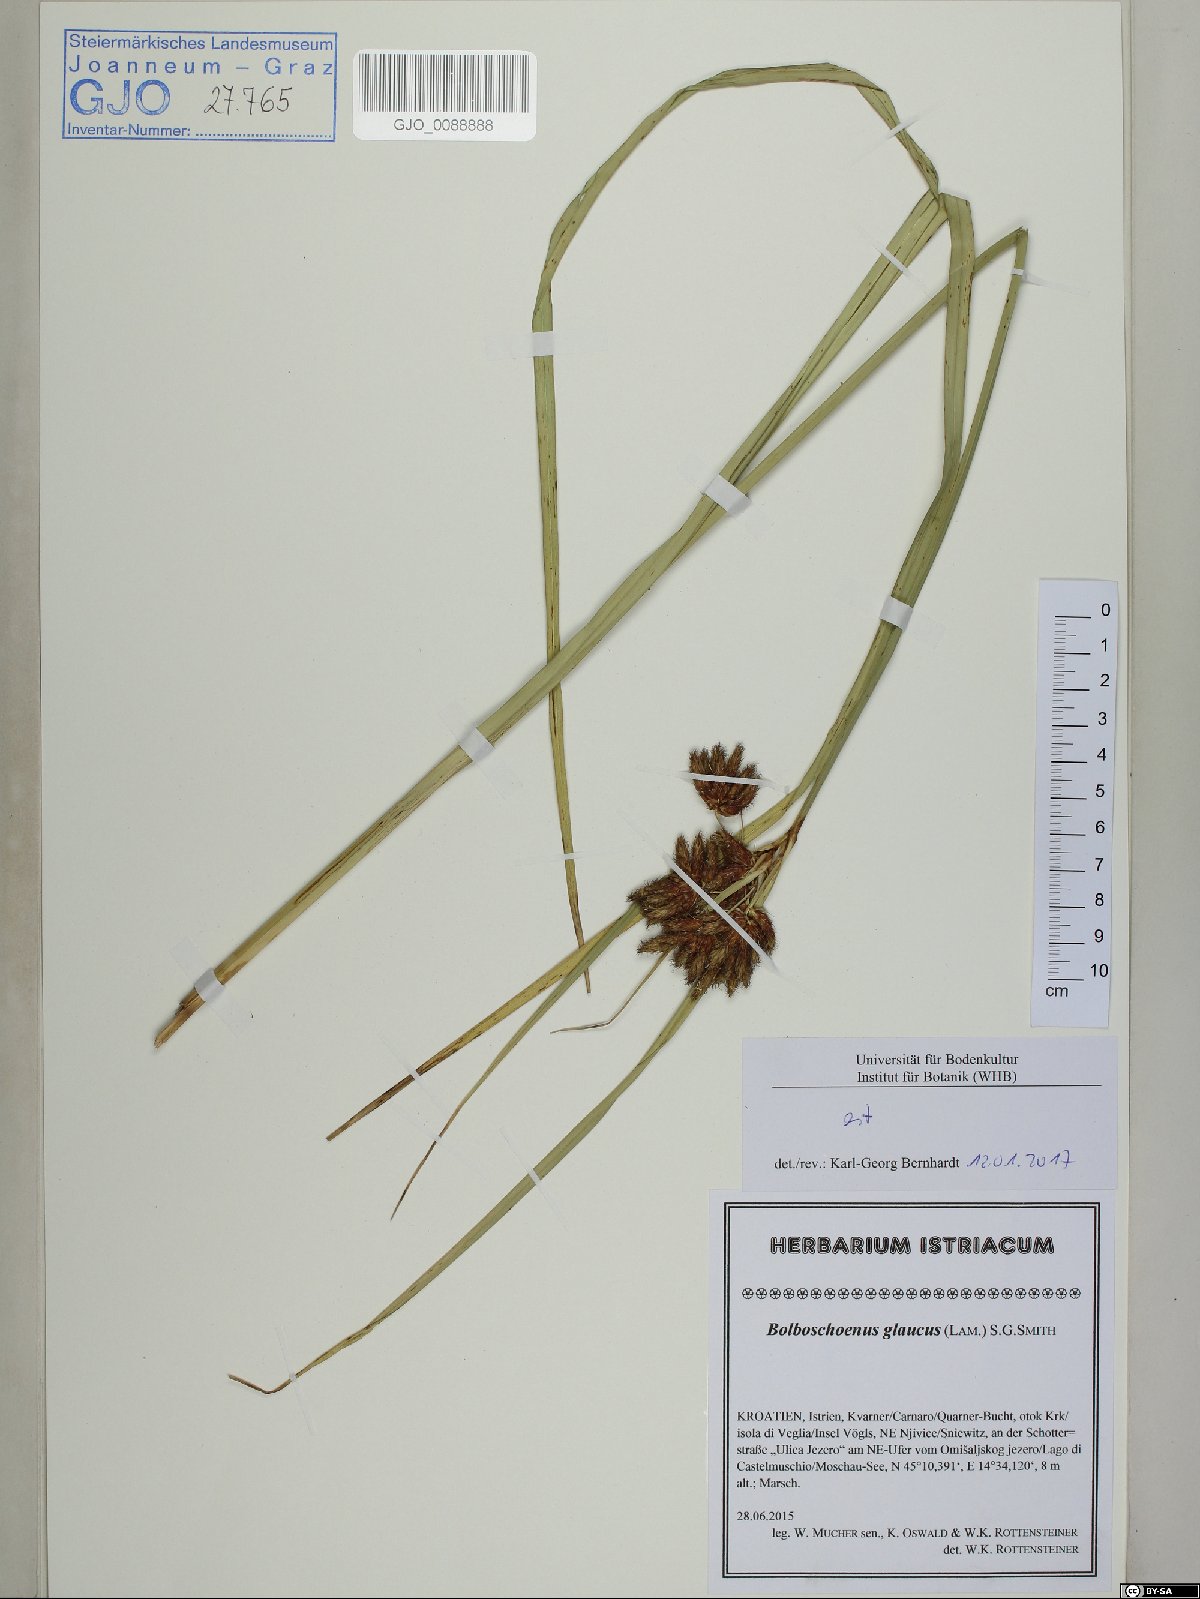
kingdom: Plantae
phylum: Tracheophyta
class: Liliopsida
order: Poales
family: Cyperaceae
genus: Bolboschoenus
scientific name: Bolboschoenus glaucus
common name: Tuberous bulrush
